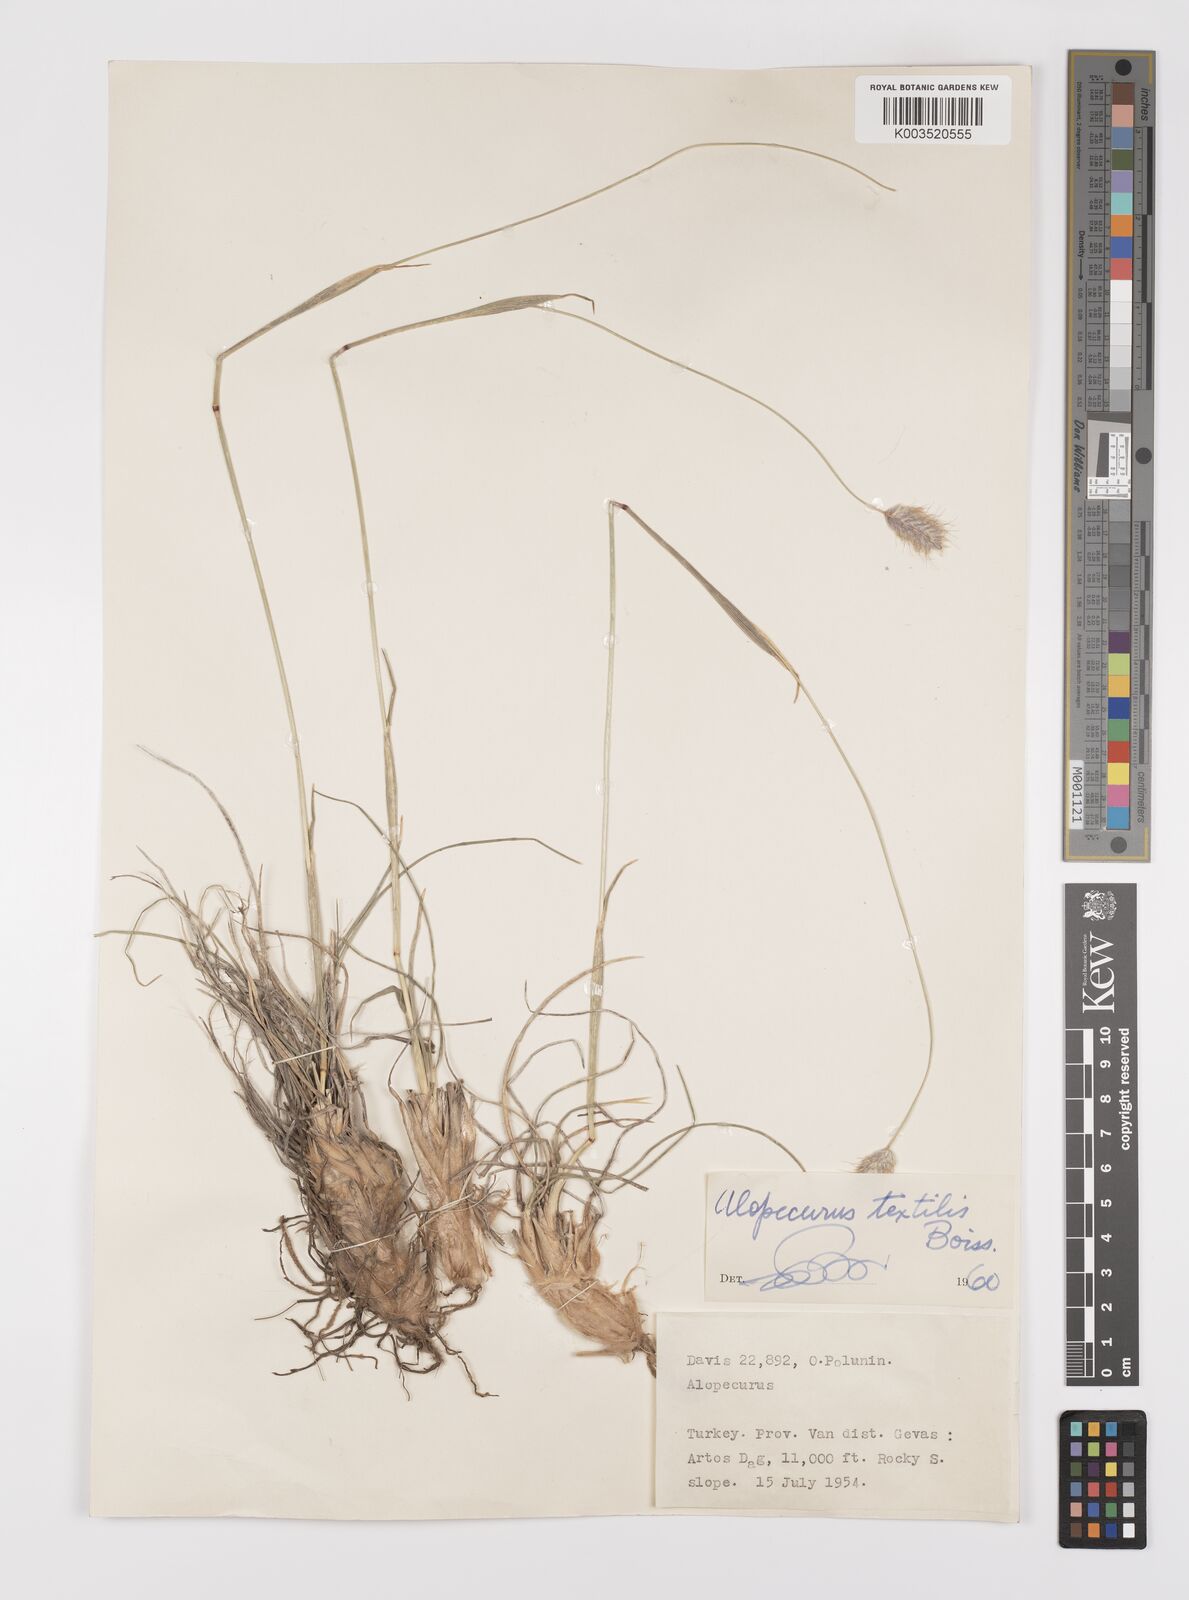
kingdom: Plantae
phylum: Tracheophyta
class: Liliopsida
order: Poales
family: Poaceae
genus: Alopecurus
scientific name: Alopecurus textilis
